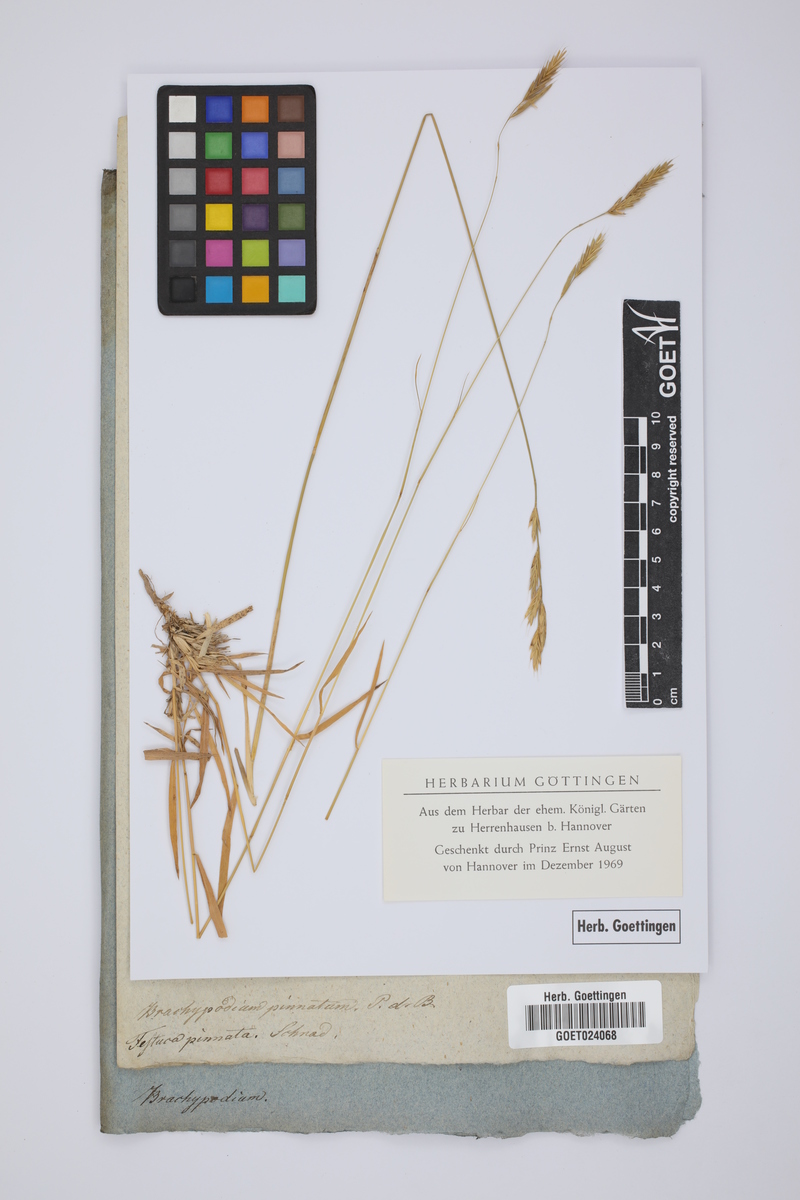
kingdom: Plantae
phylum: Tracheophyta
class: Liliopsida
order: Poales
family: Poaceae
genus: Brachypodium
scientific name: Brachypodium pinnatum
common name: Tor grass
